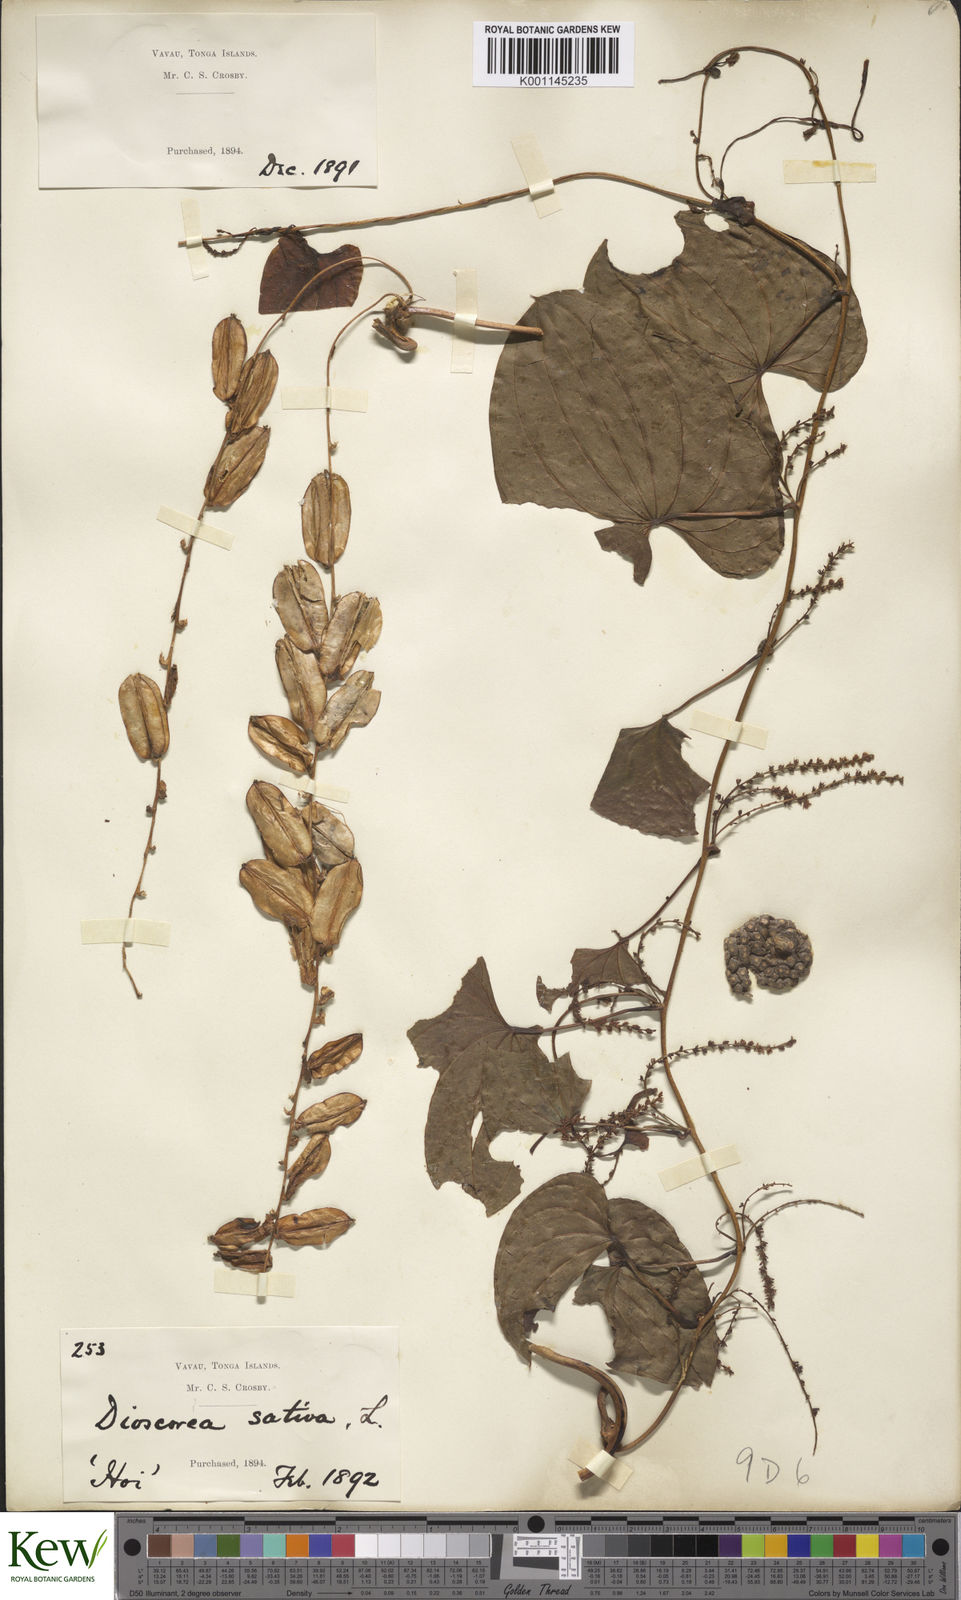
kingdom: Plantae
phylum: Tracheophyta
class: Liliopsida
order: Dioscoreales
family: Dioscoreaceae
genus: Dioscorea
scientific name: Dioscorea bulbifera
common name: Air yam
